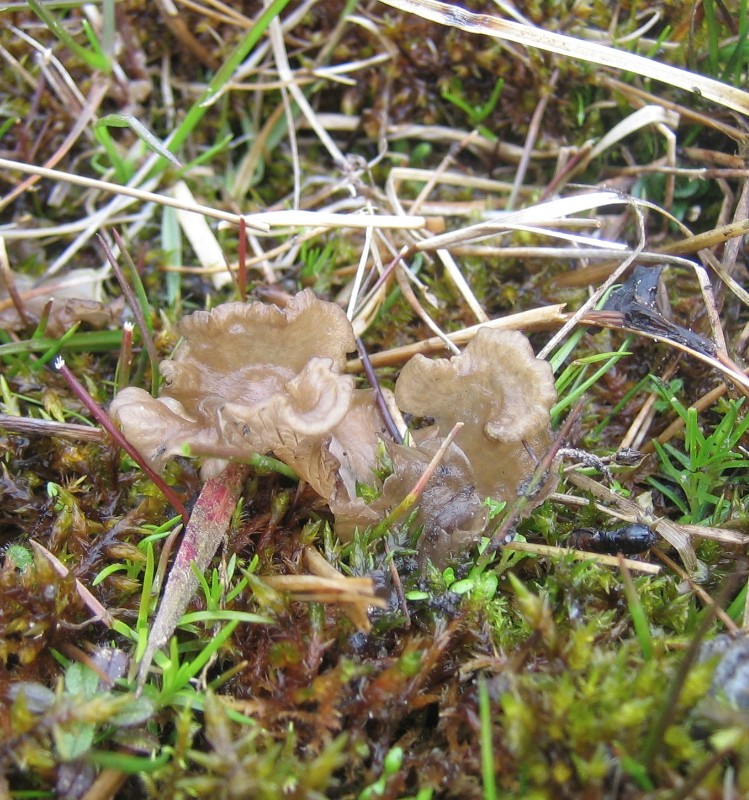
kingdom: Fungi
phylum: Basidiomycota
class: Agaricomycetes
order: Agaricales
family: Hygrophoraceae
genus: Arrhenia
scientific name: Arrhenia lobata
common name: siddende fontænehat
